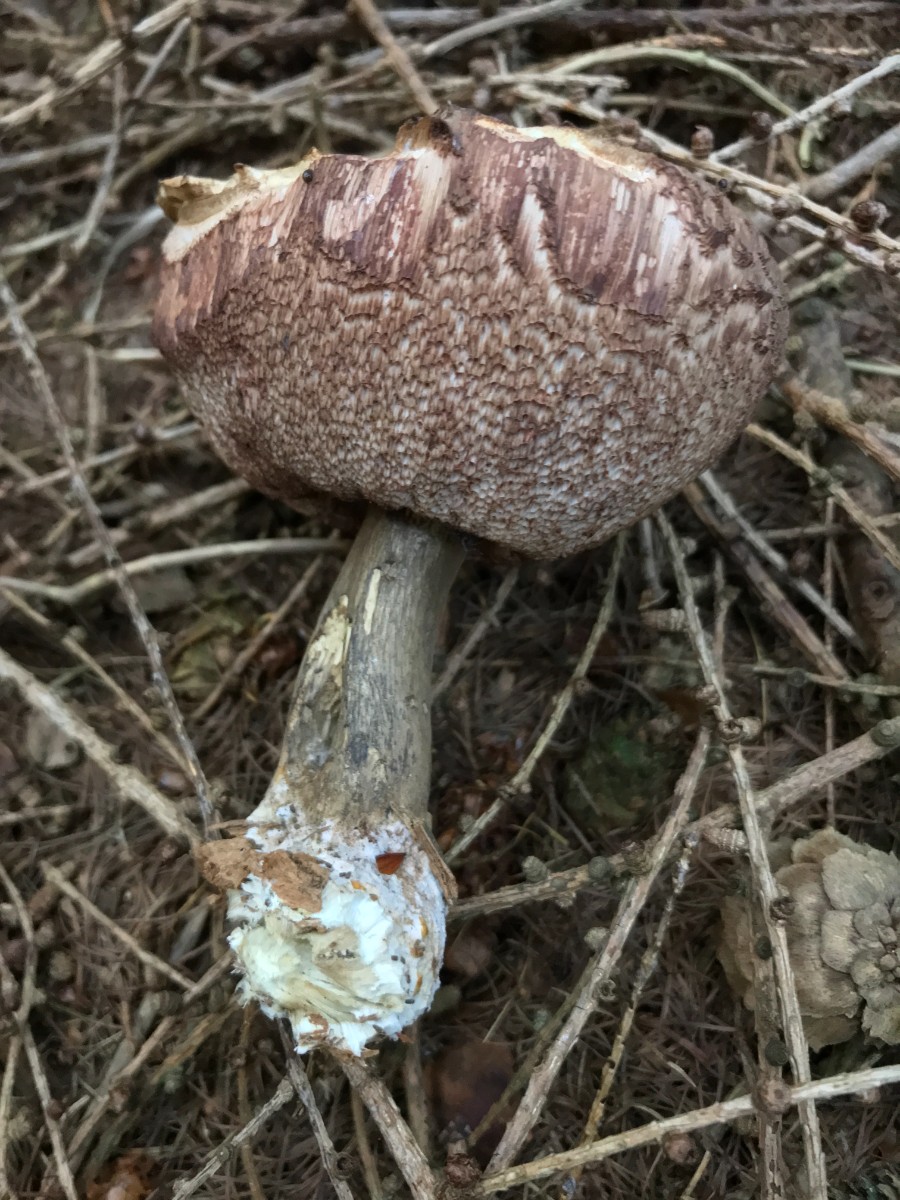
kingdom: Fungi
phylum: Basidiomycota
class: Agaricomycetes
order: Boletales
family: Boletaceae
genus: Tylopilus
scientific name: Tylopilus felleus
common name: galderørhat
